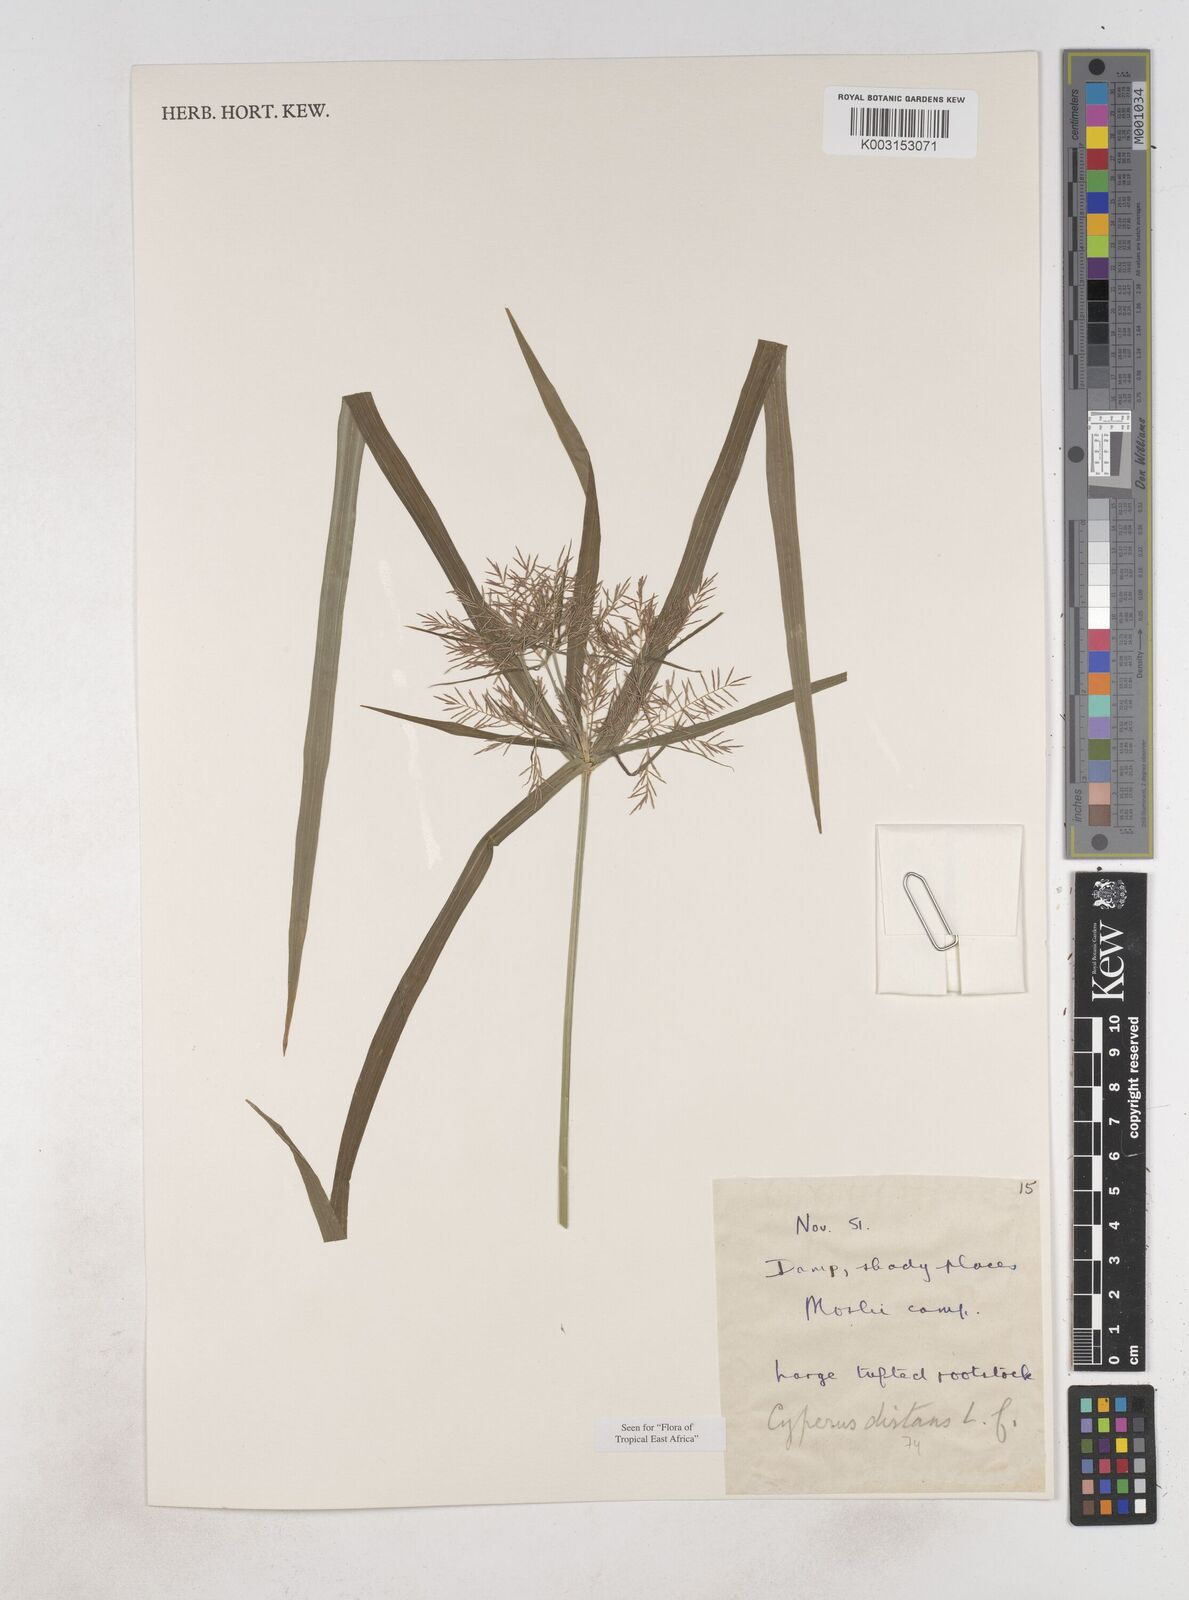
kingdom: Plantae
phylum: Tracheophyta
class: Liliopsida
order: Poales
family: Cyperaceae
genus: Cyperus
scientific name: Cyperus distans
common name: Slender cyperus
